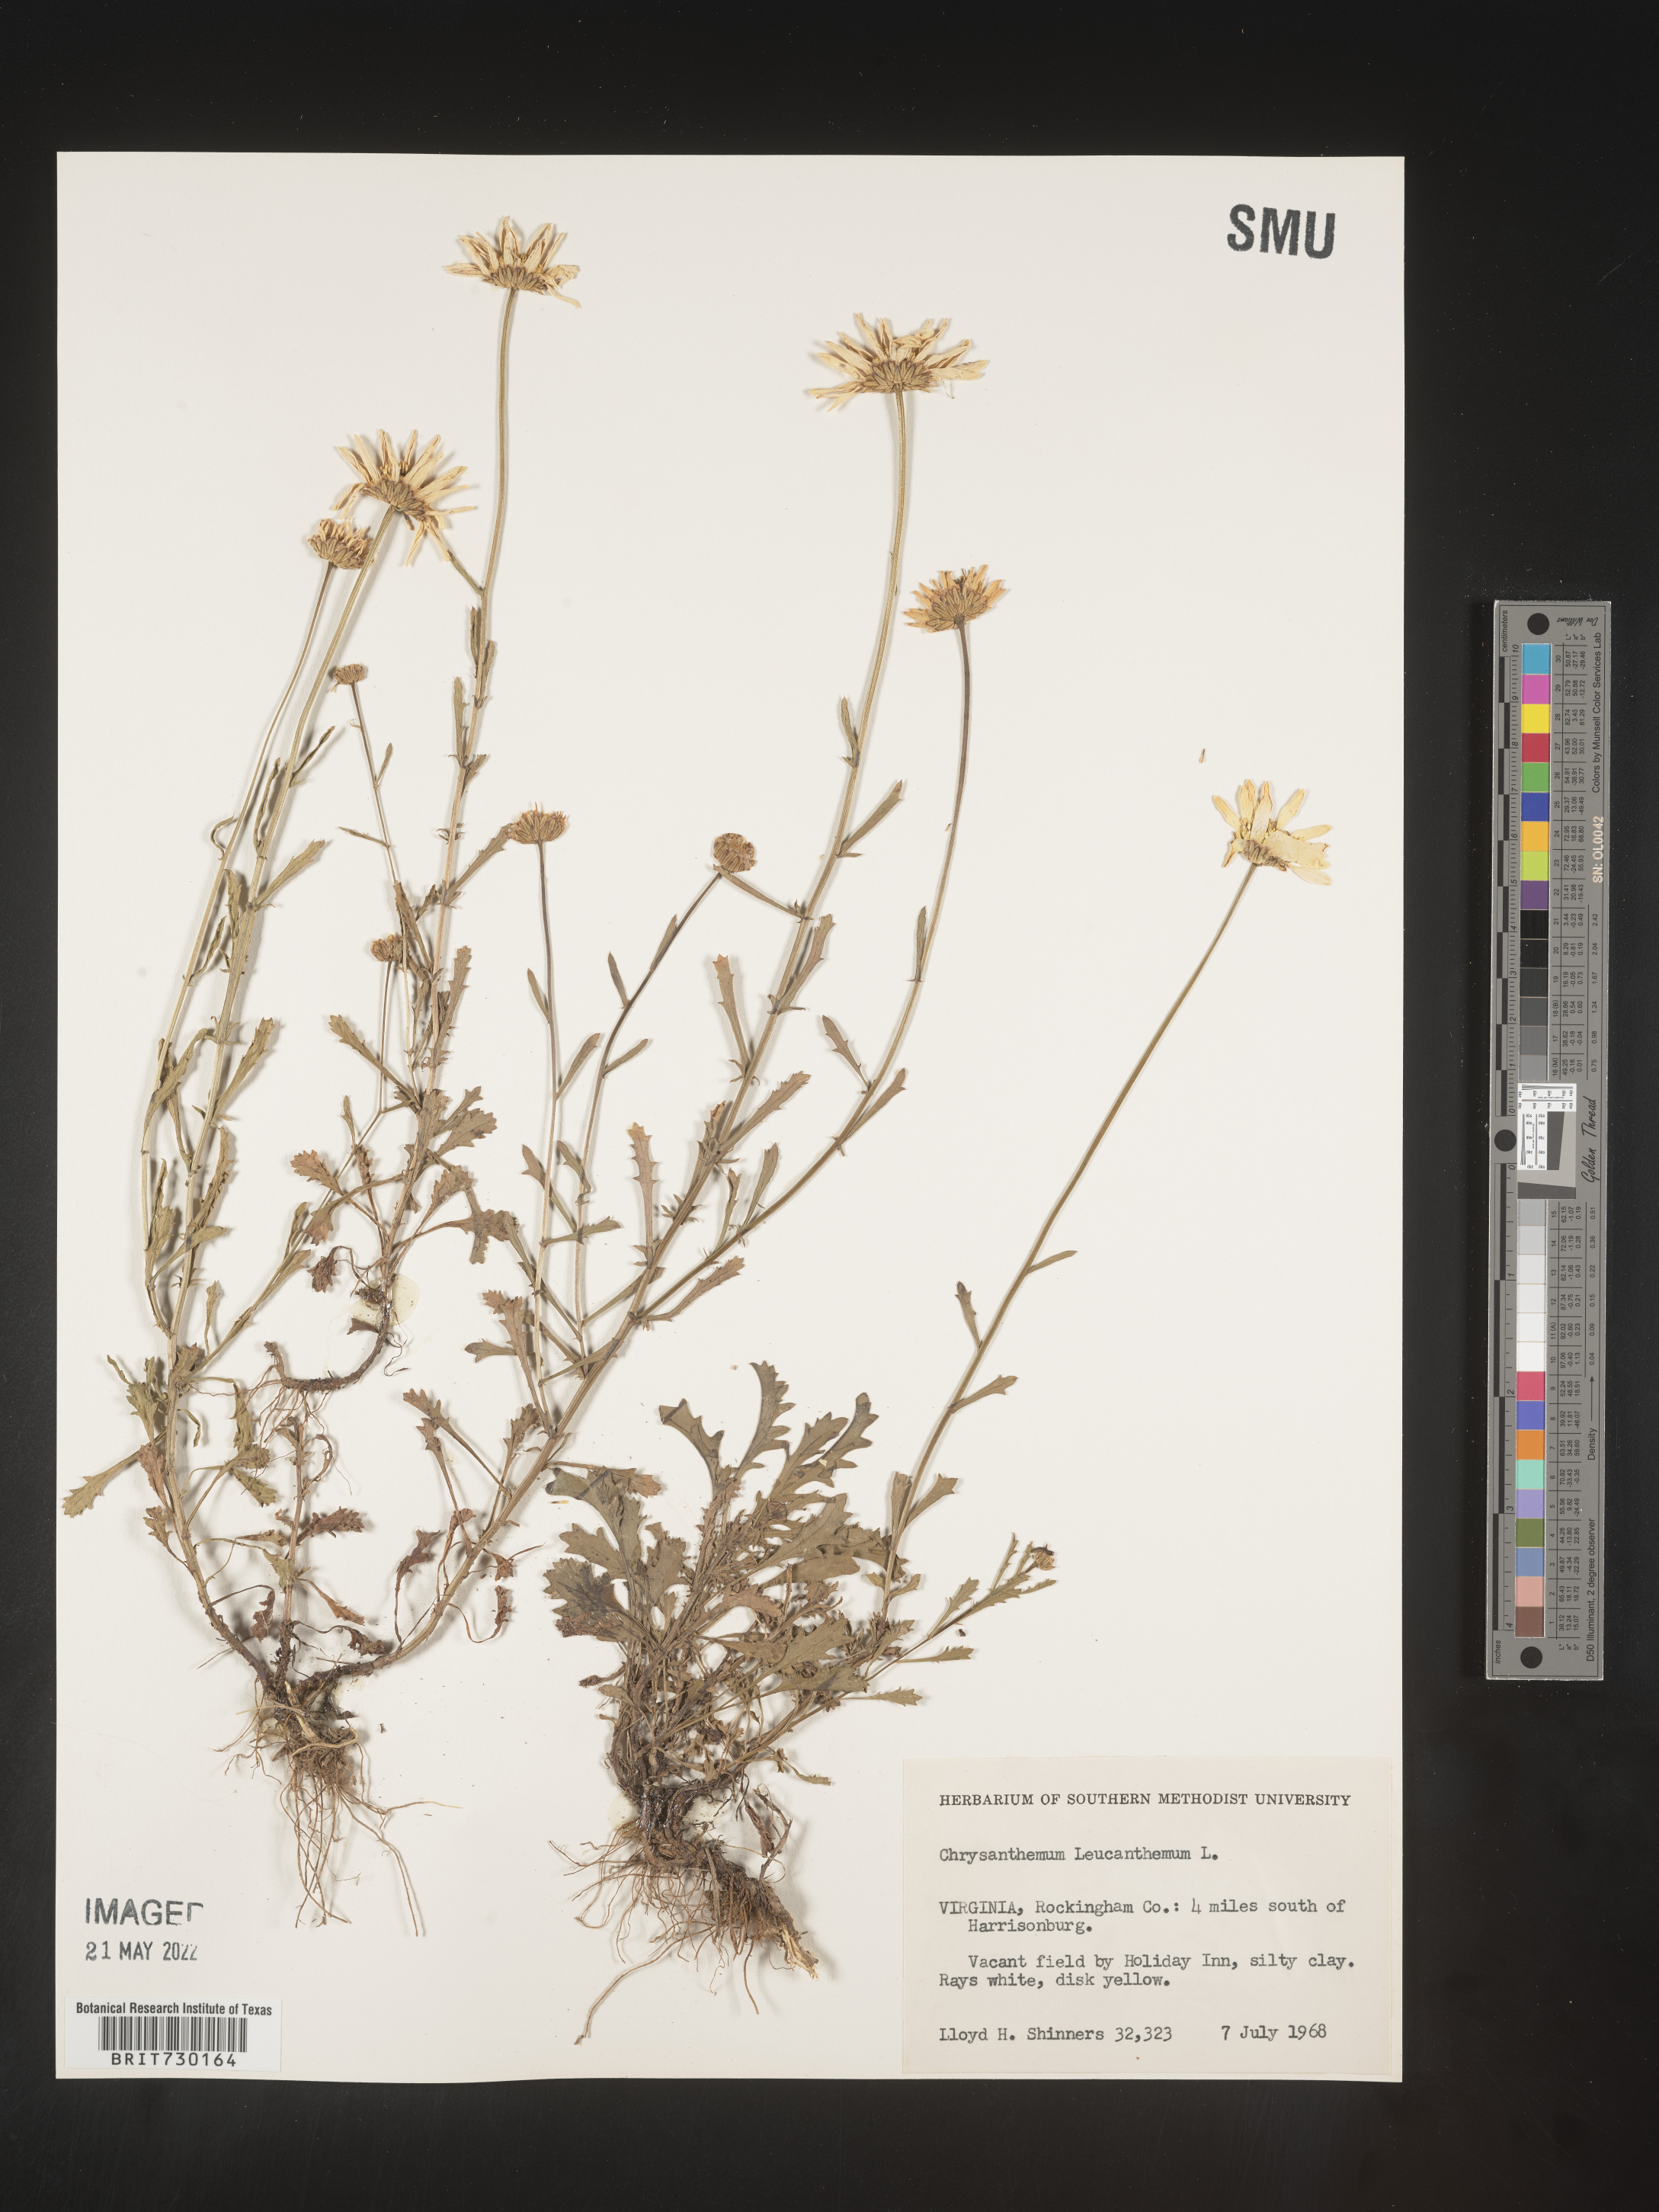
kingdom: Plantae
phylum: Tracheophyta
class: Magnoliopsida
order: Asterales
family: Asteraceae
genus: Leucanthemum
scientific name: Leucanthemum vulgare
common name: Oxeye daisy
